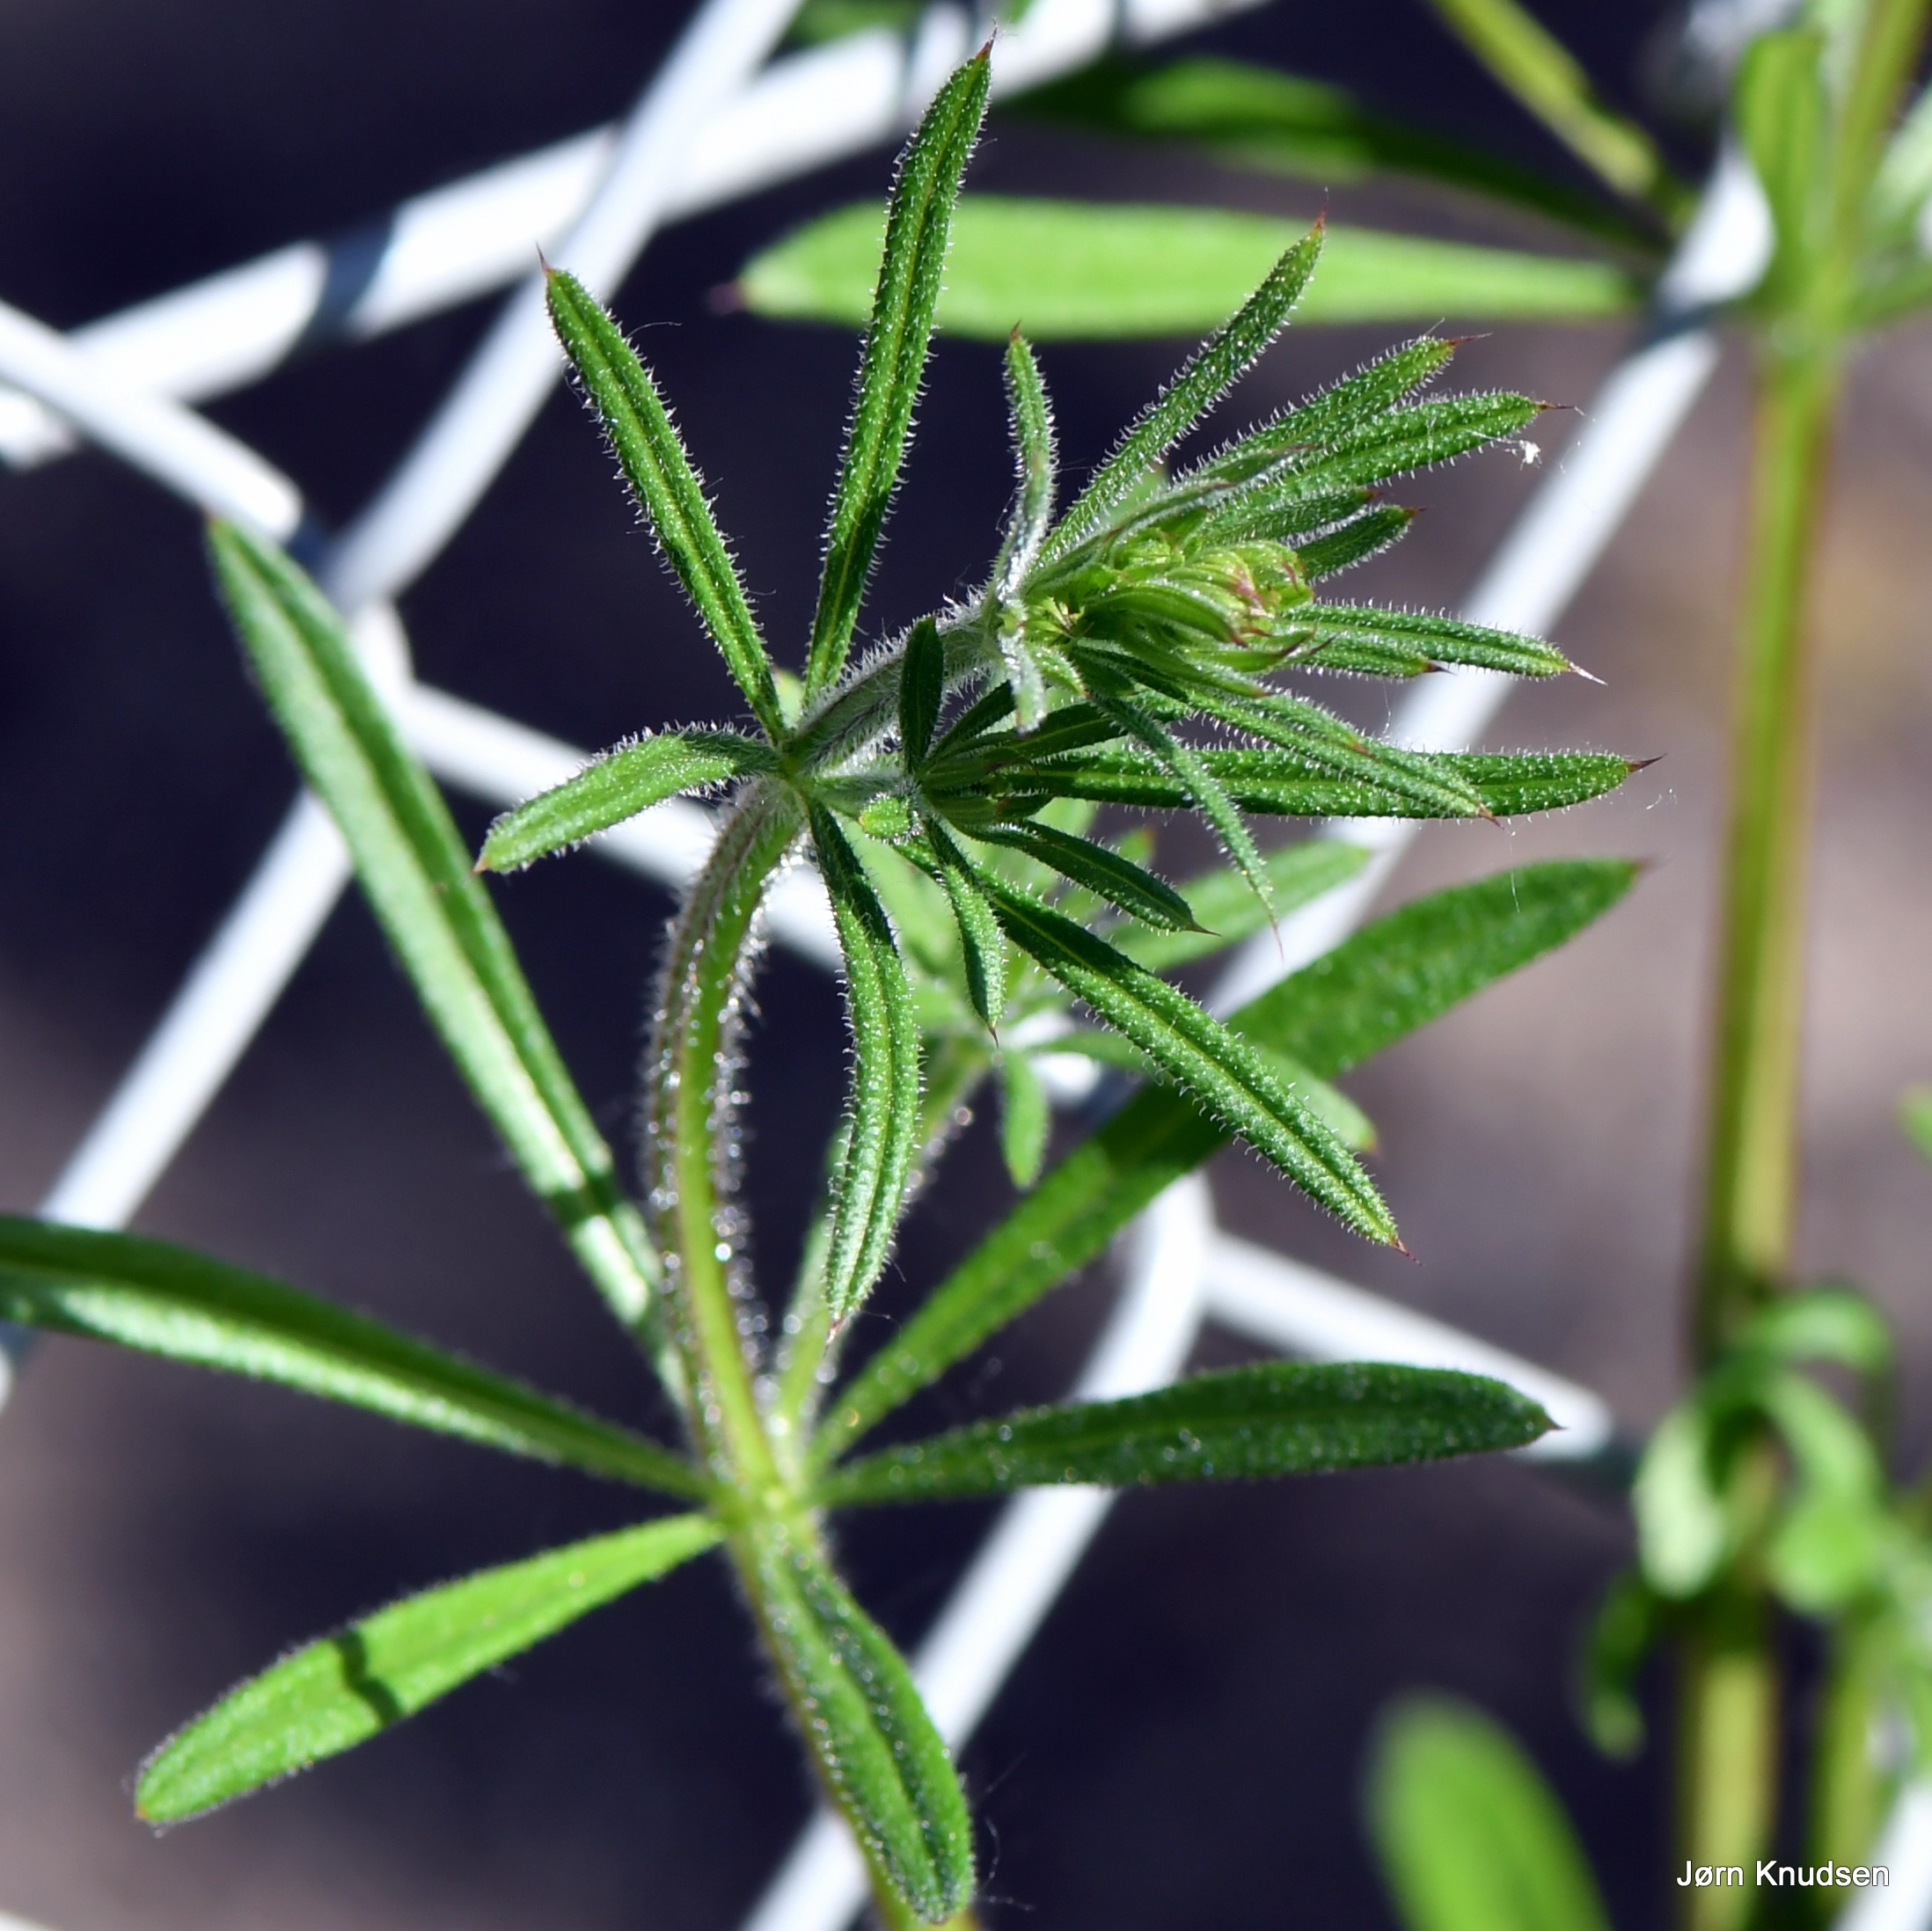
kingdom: Plantae
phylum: Tracheophyta
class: Magnoliopsida
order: Gentianales
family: Rubiaceae
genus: Galium
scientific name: Galium aparine
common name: Burre-snerre
